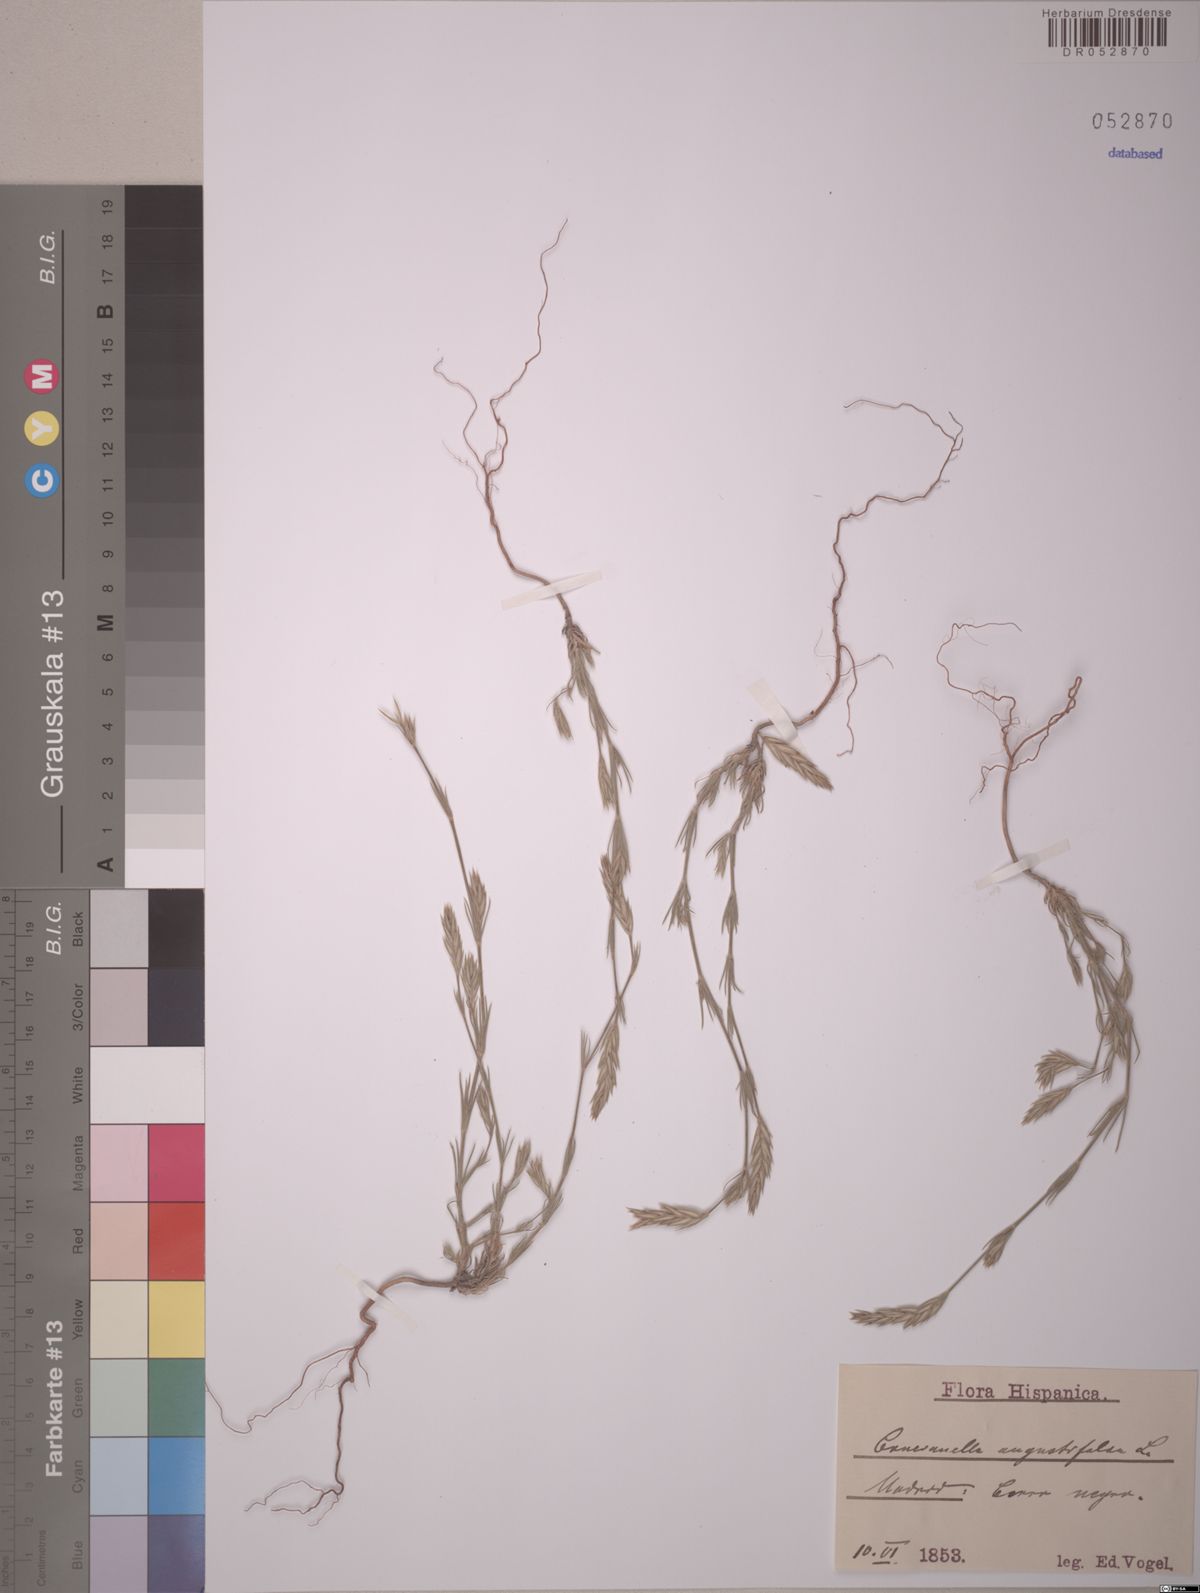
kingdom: Plantae
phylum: Tracheophyta
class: Magnoliopsida
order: Gentianales
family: Rubiaceae
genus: Crucianella
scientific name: Crucianella angustifolia
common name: Narrowleaf crucianella
